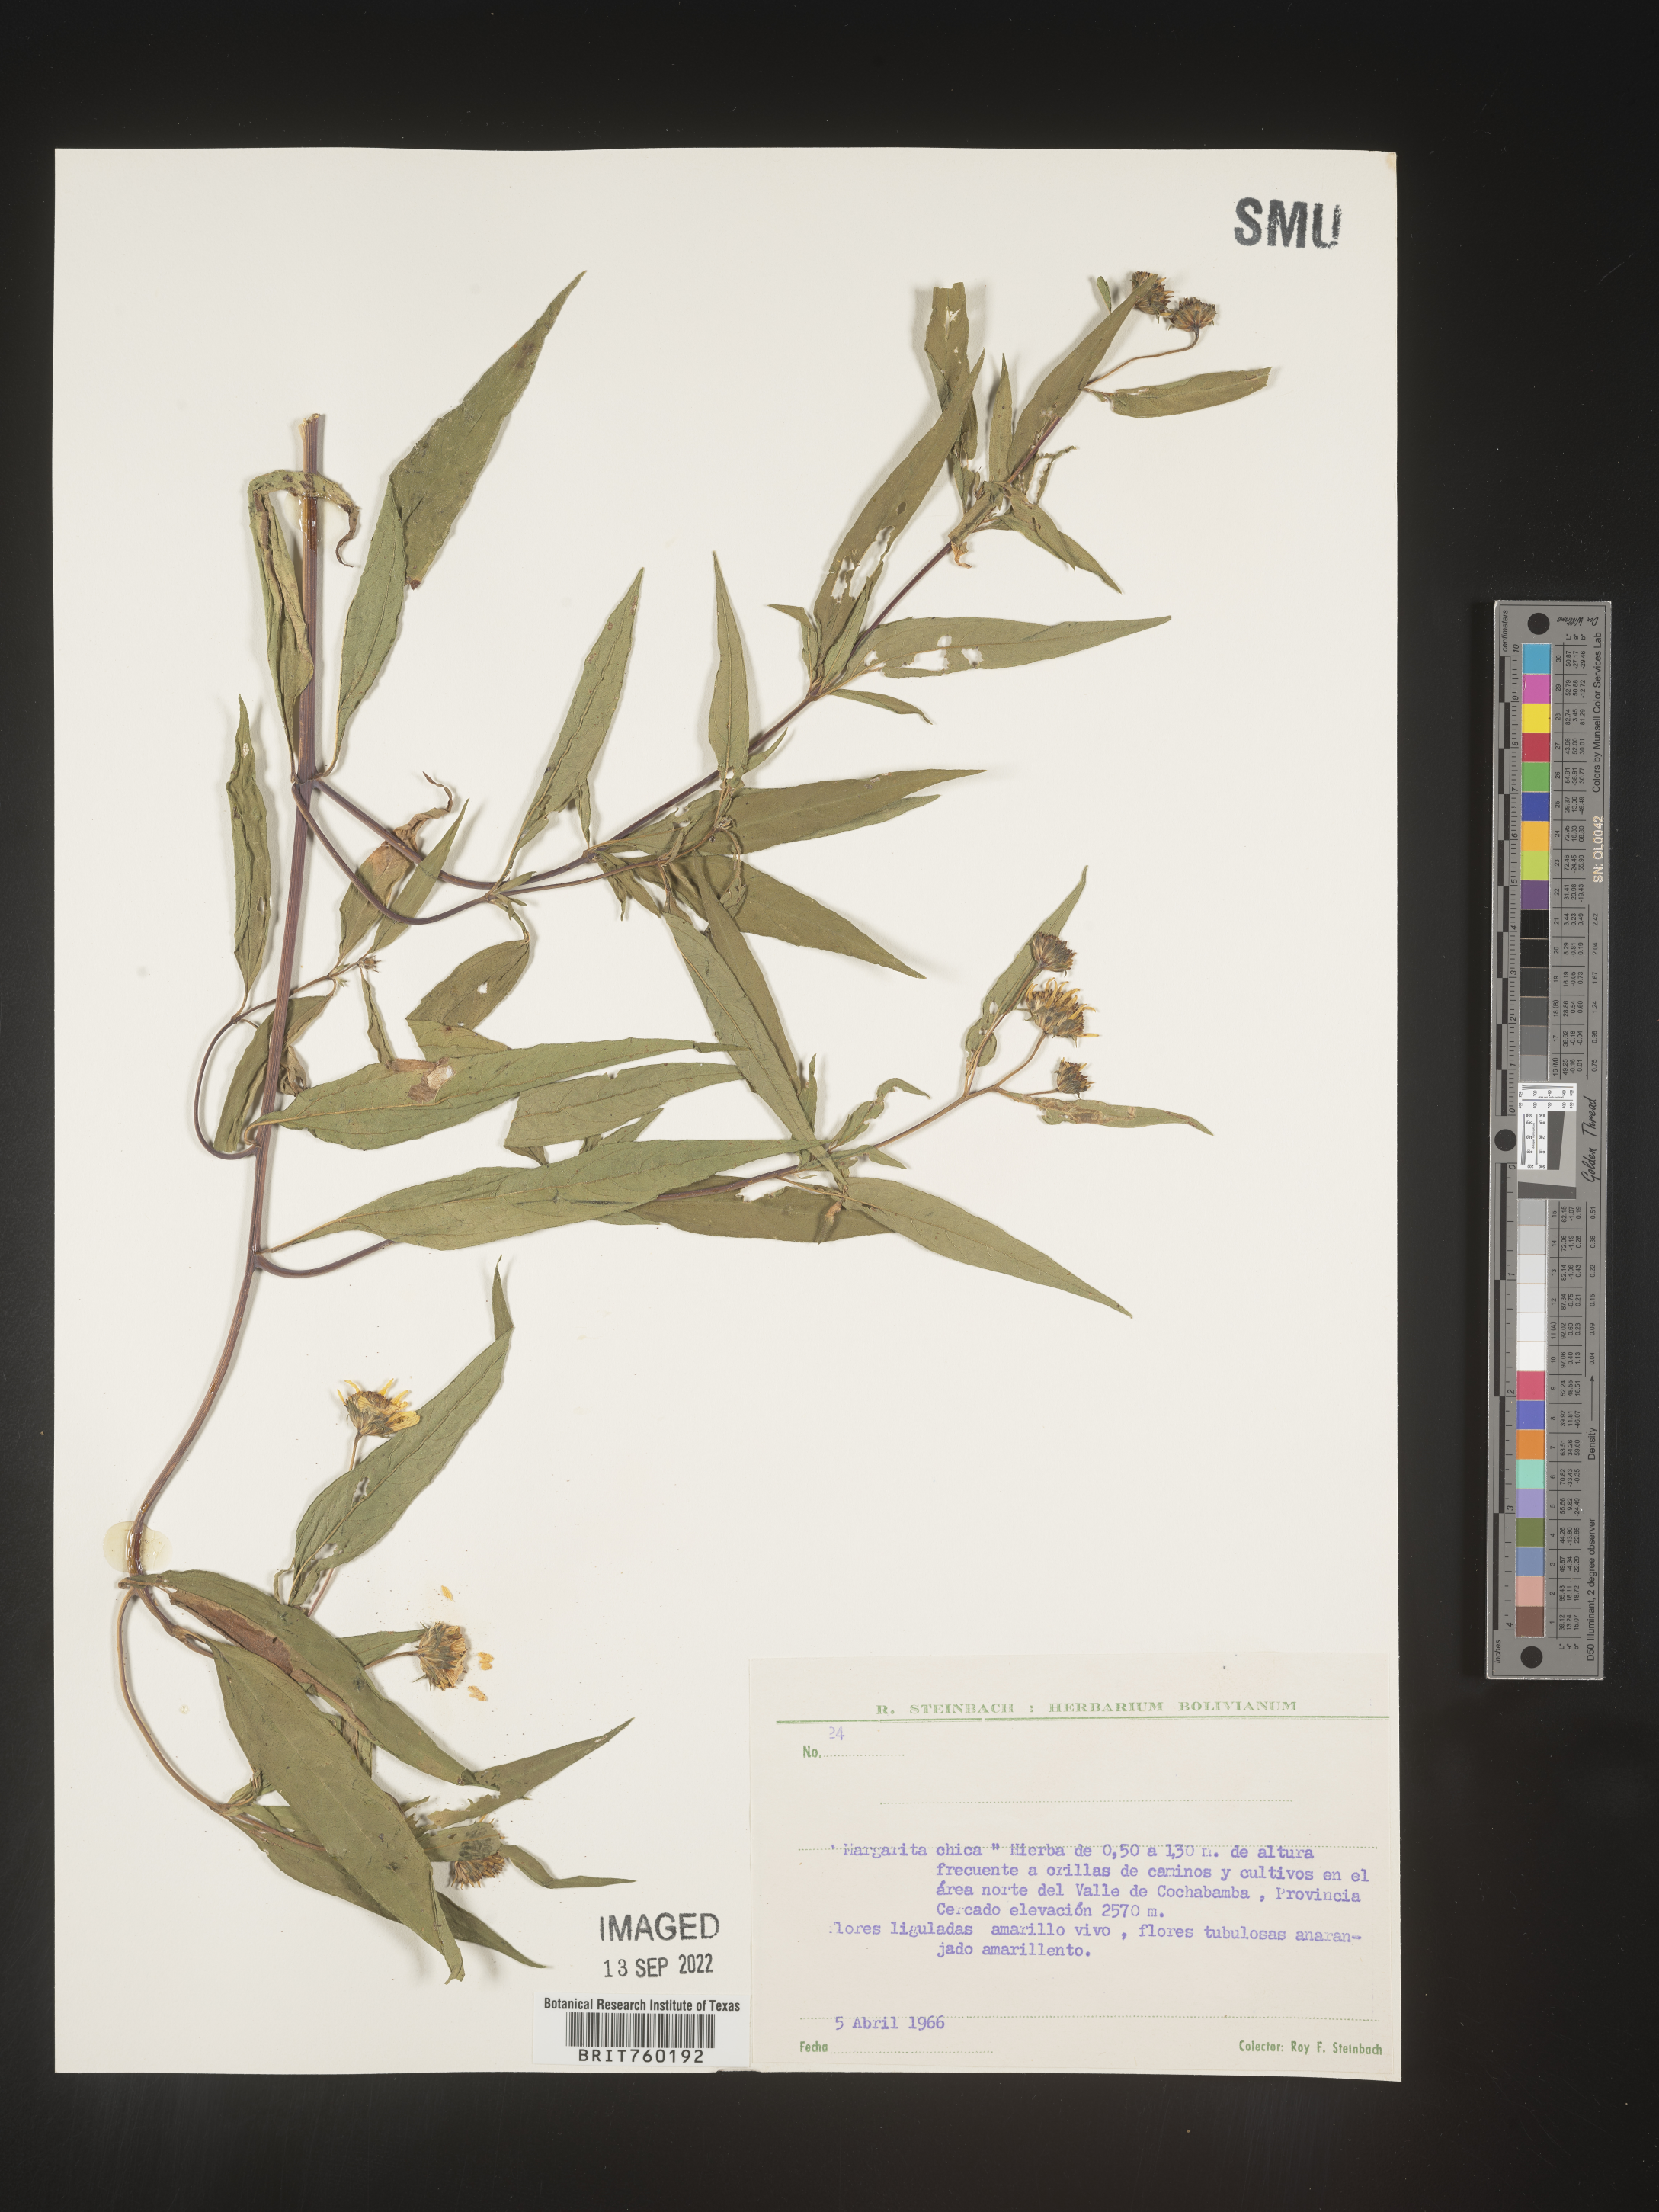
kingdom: Plantae
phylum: Tracheophyta
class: Magnoliopsida
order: Asterales
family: Asteraceae
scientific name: Asteraceae
